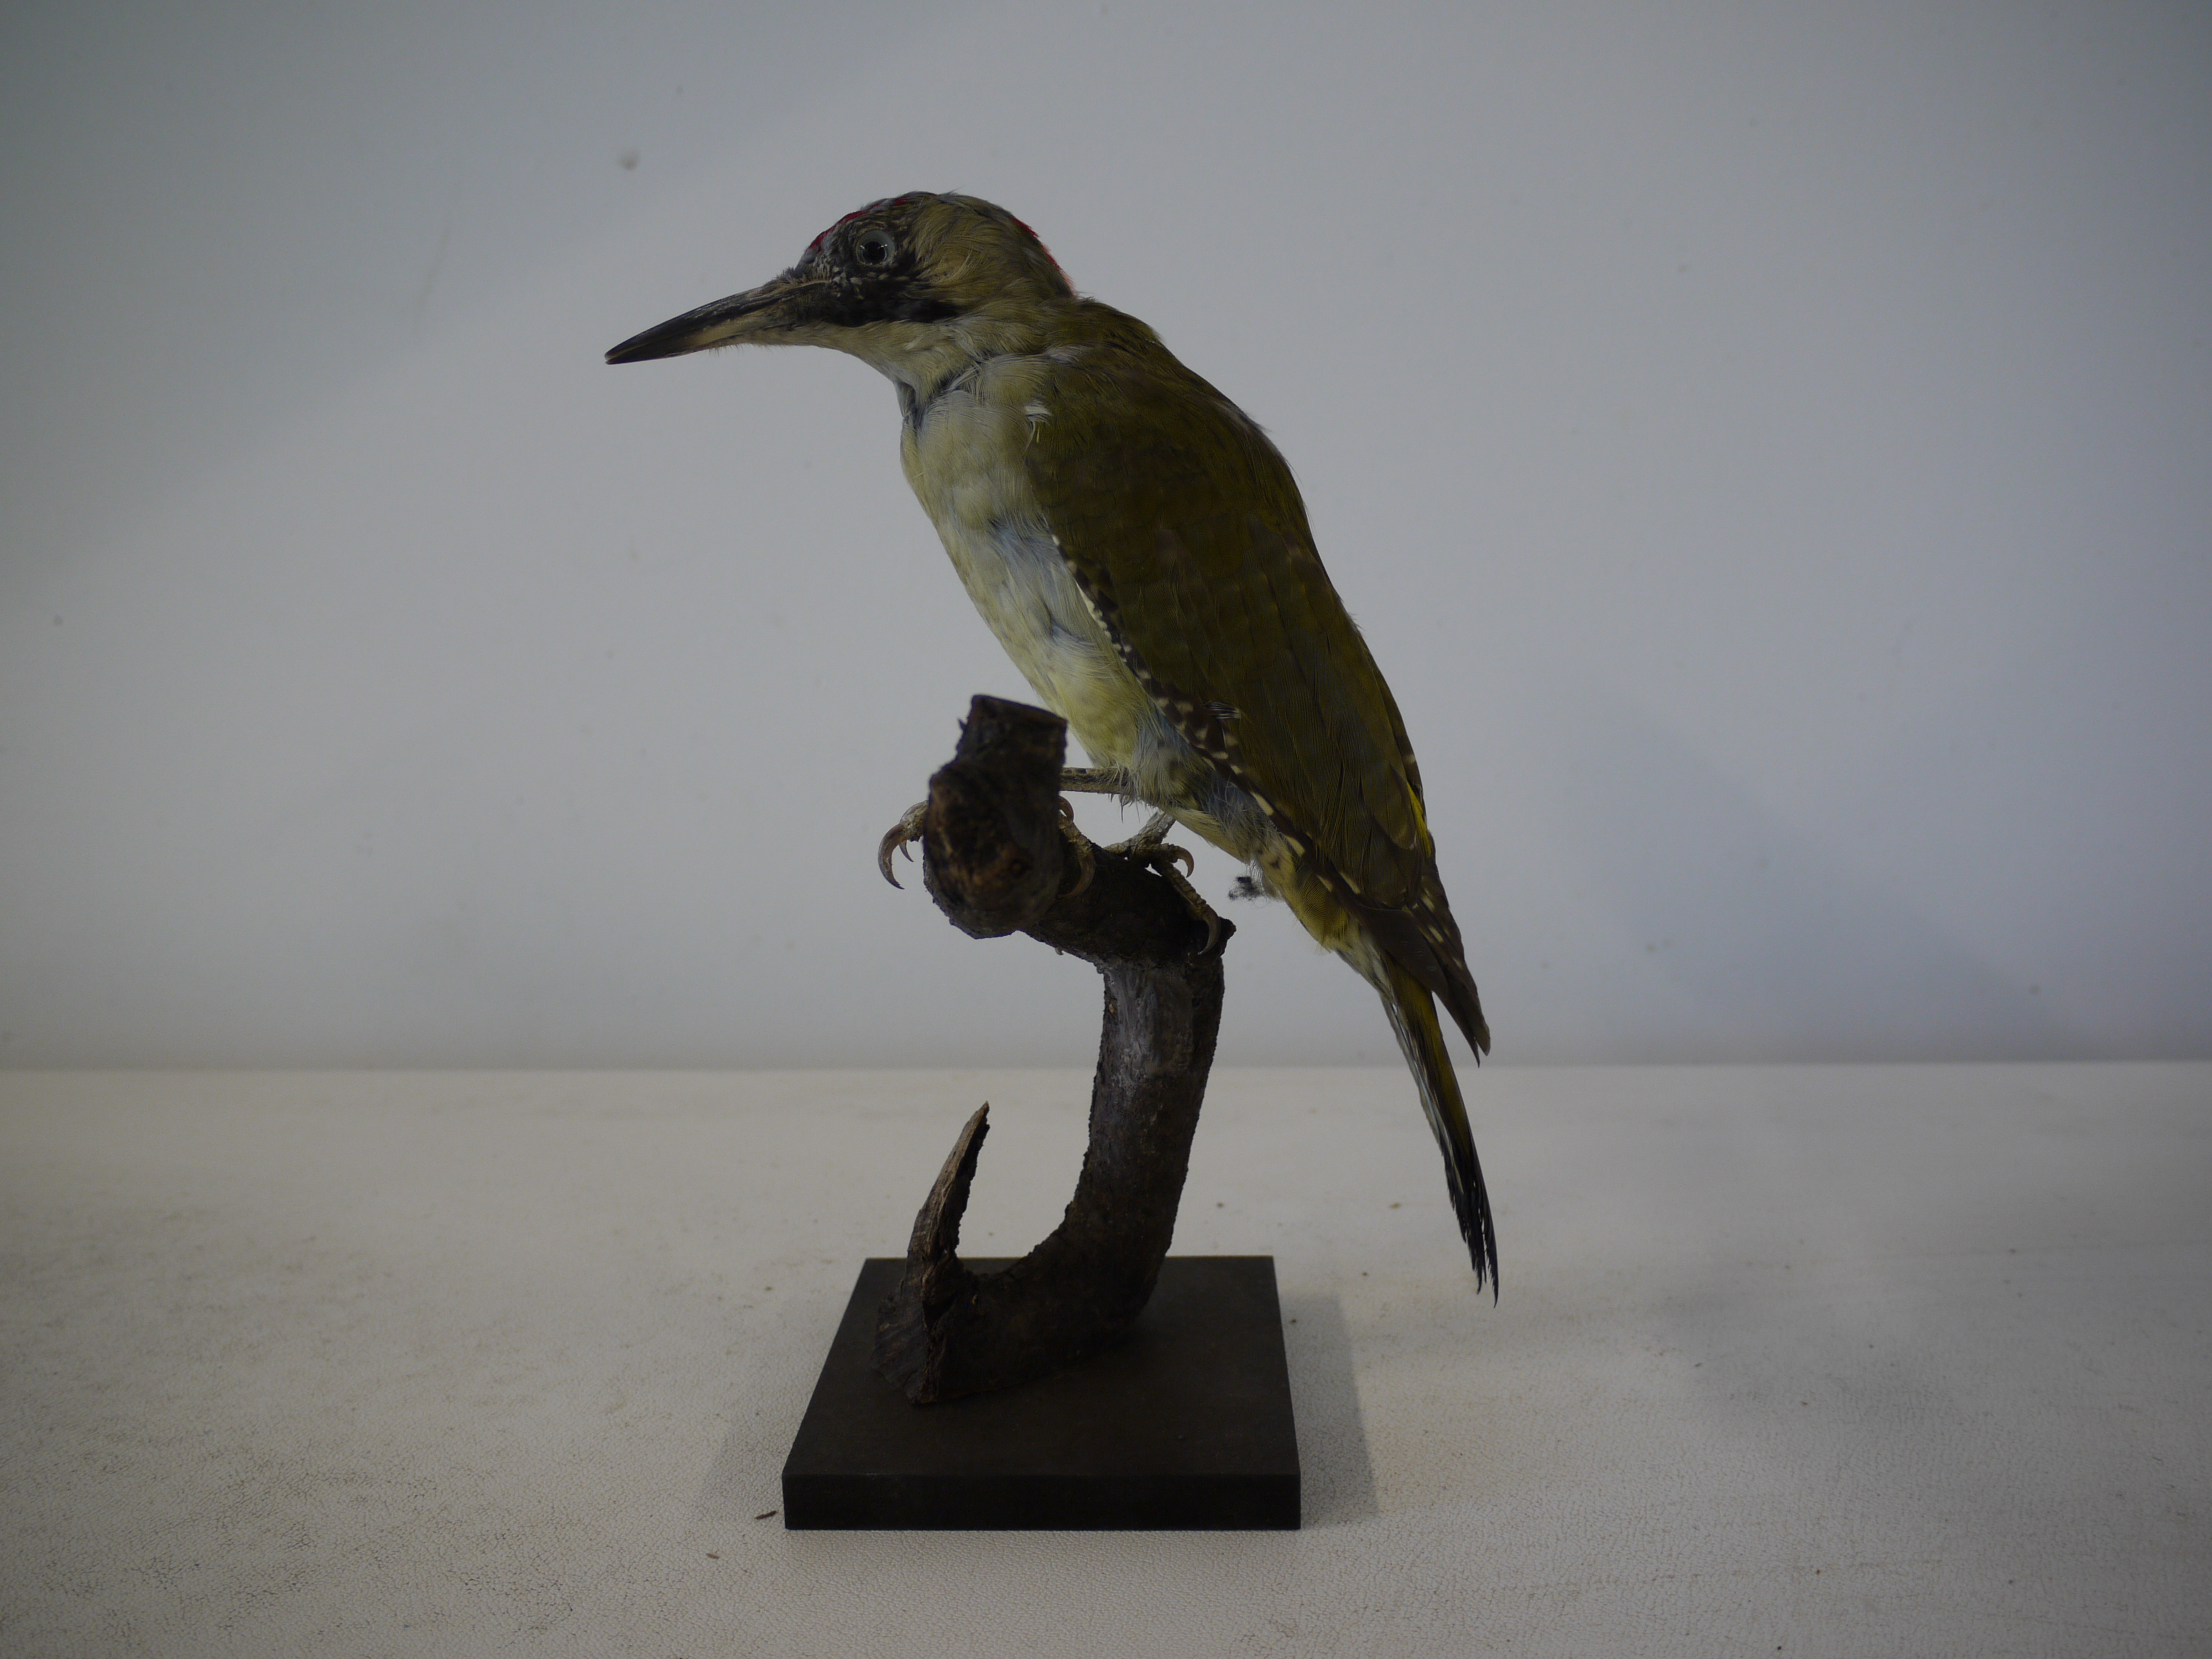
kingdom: Animalia
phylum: Chordata
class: Aves
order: Piciformes
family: Picidae
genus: Picus
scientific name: Picus viridis
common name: European green woodpecker
